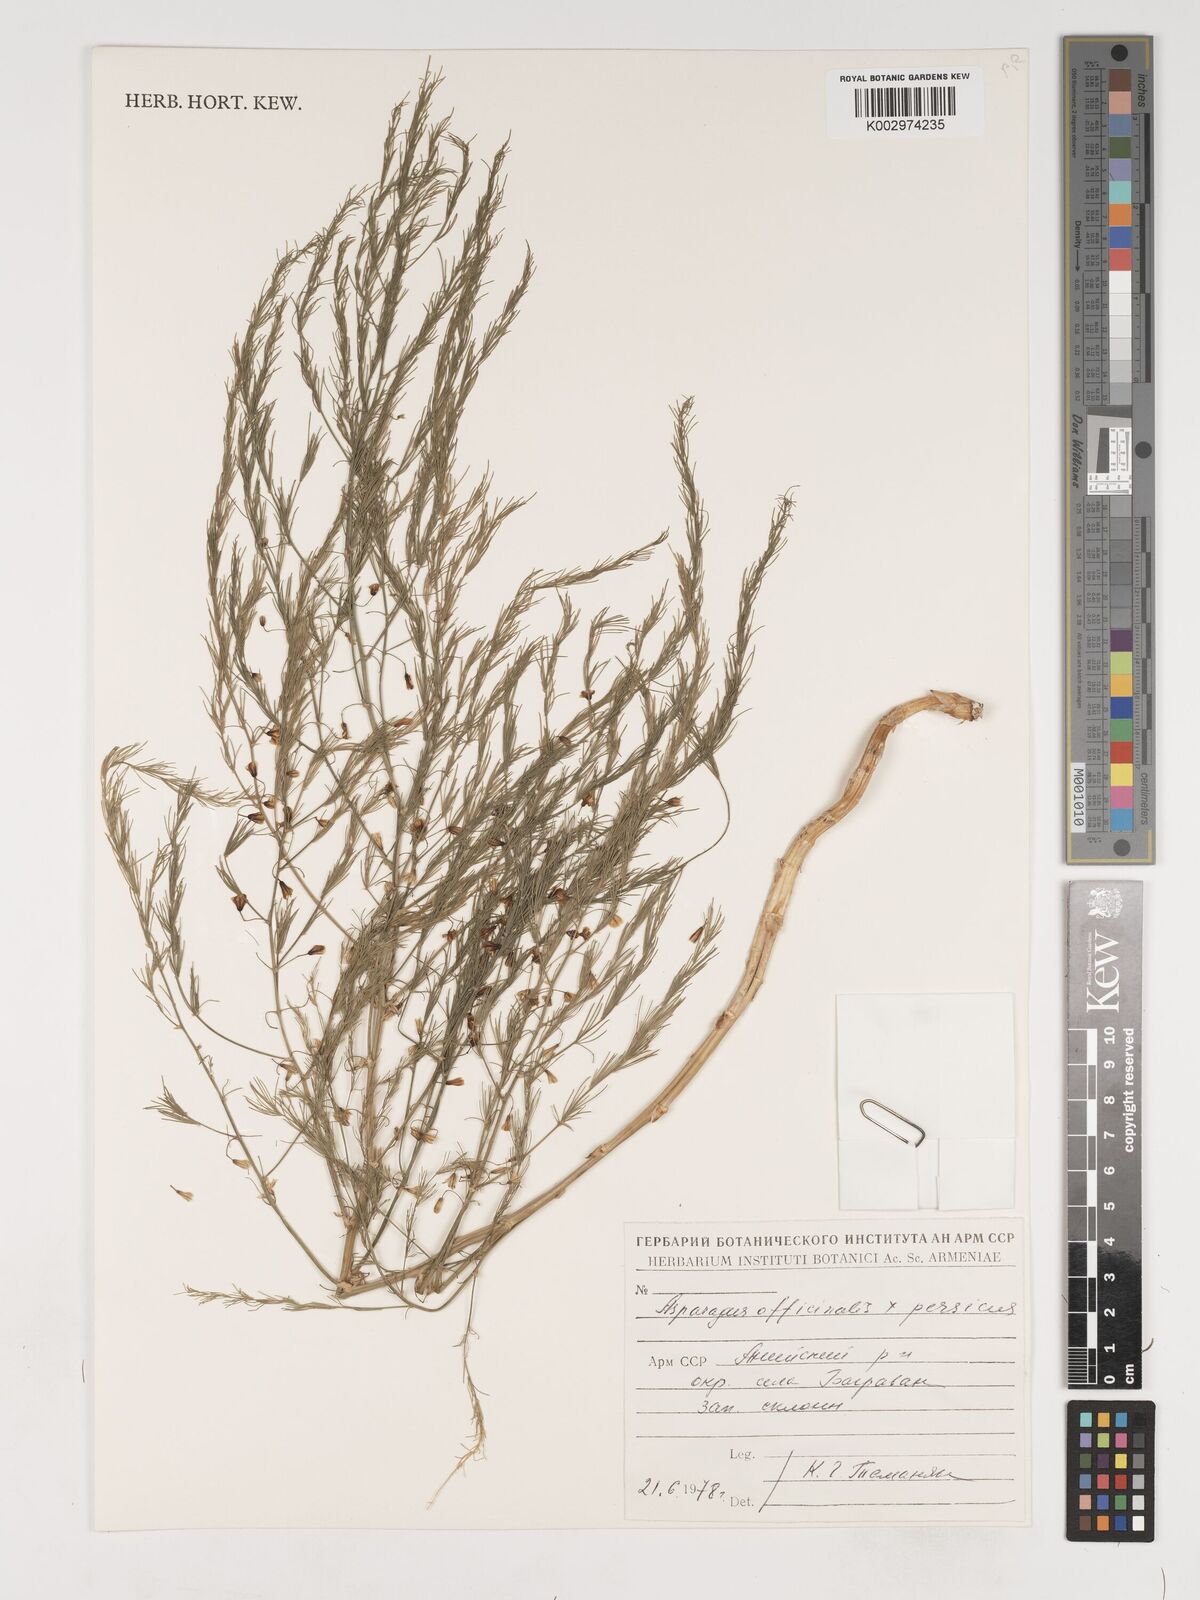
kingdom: Plantae
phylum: Tracheophyta
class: Liliopsida
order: Asparagales
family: Asparagaceae
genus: Asparagus
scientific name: Asparagus
